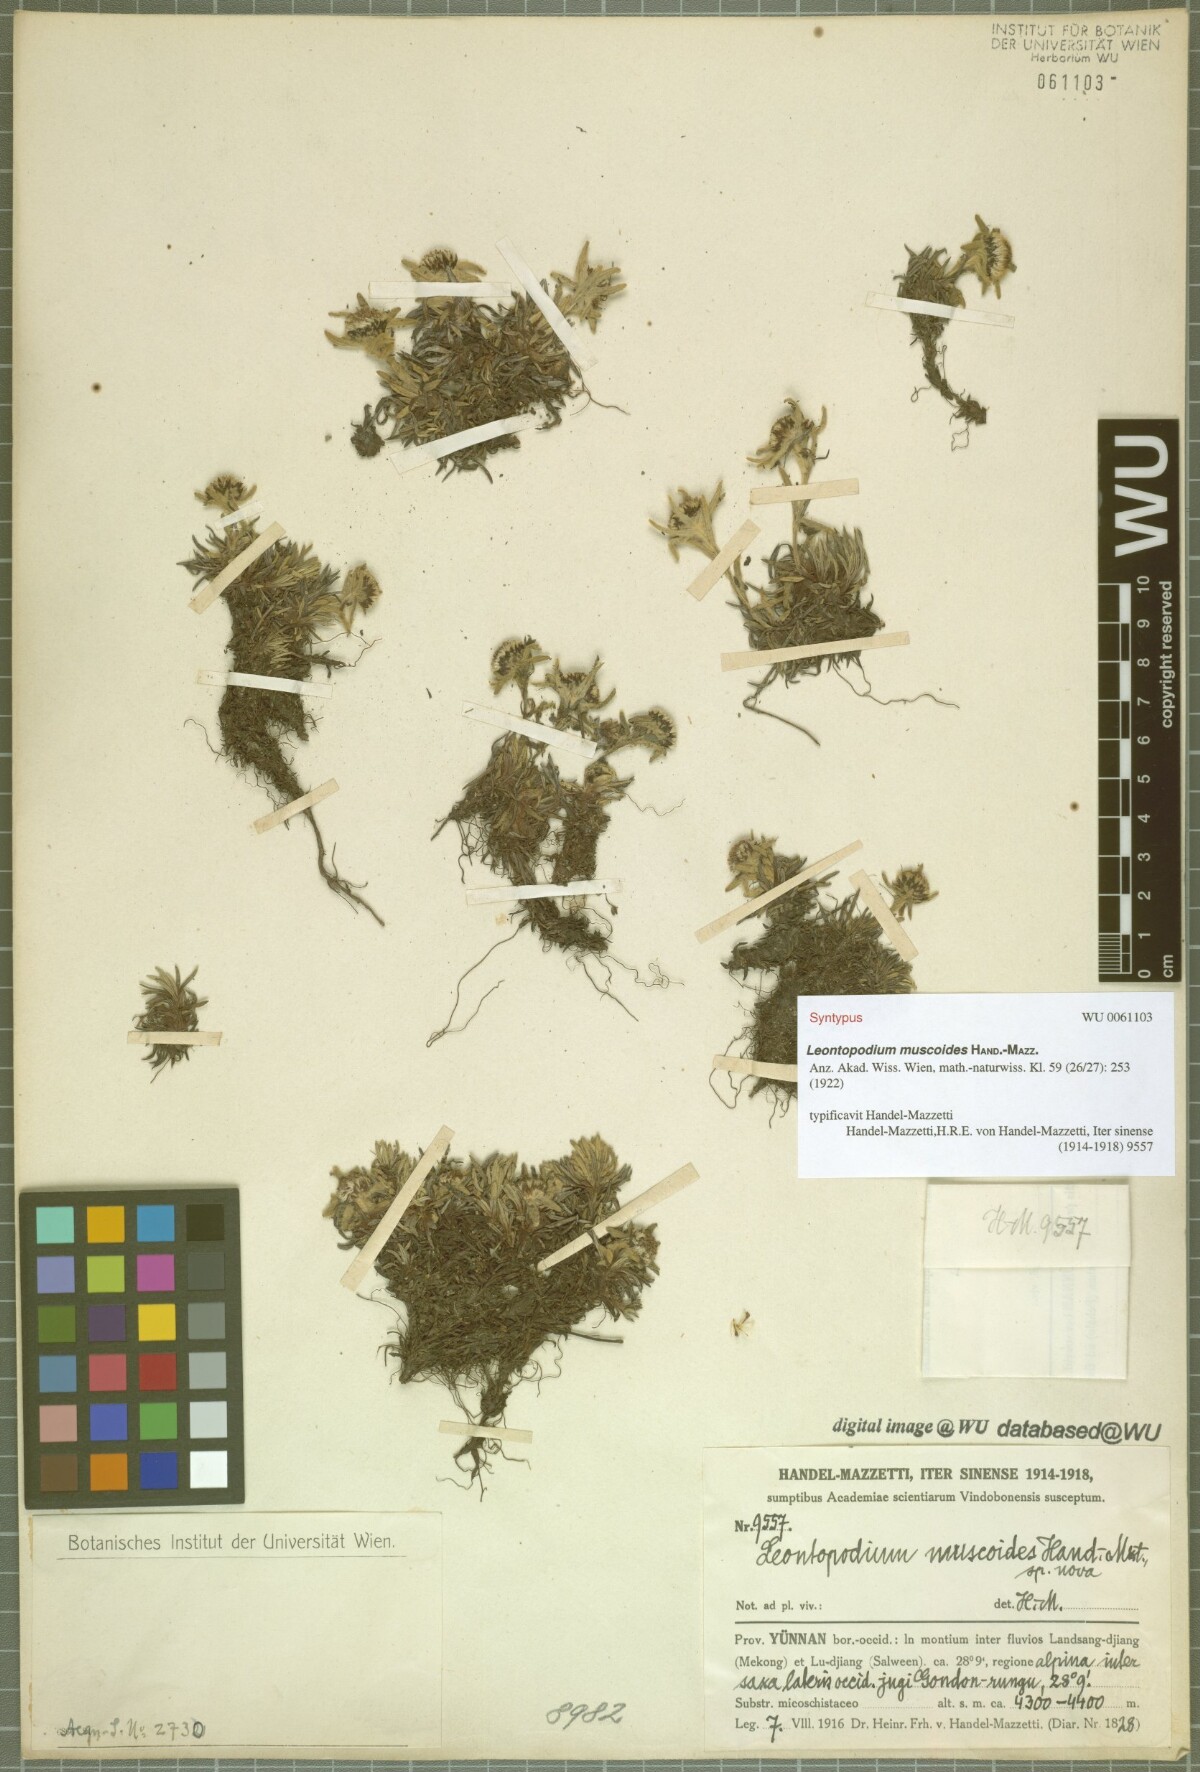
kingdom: Plantae
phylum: Tracheophyta
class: Magnoliopsida
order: Asterales
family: Asteraceae
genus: Leontopodium
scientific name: Leontopodium muscoides
